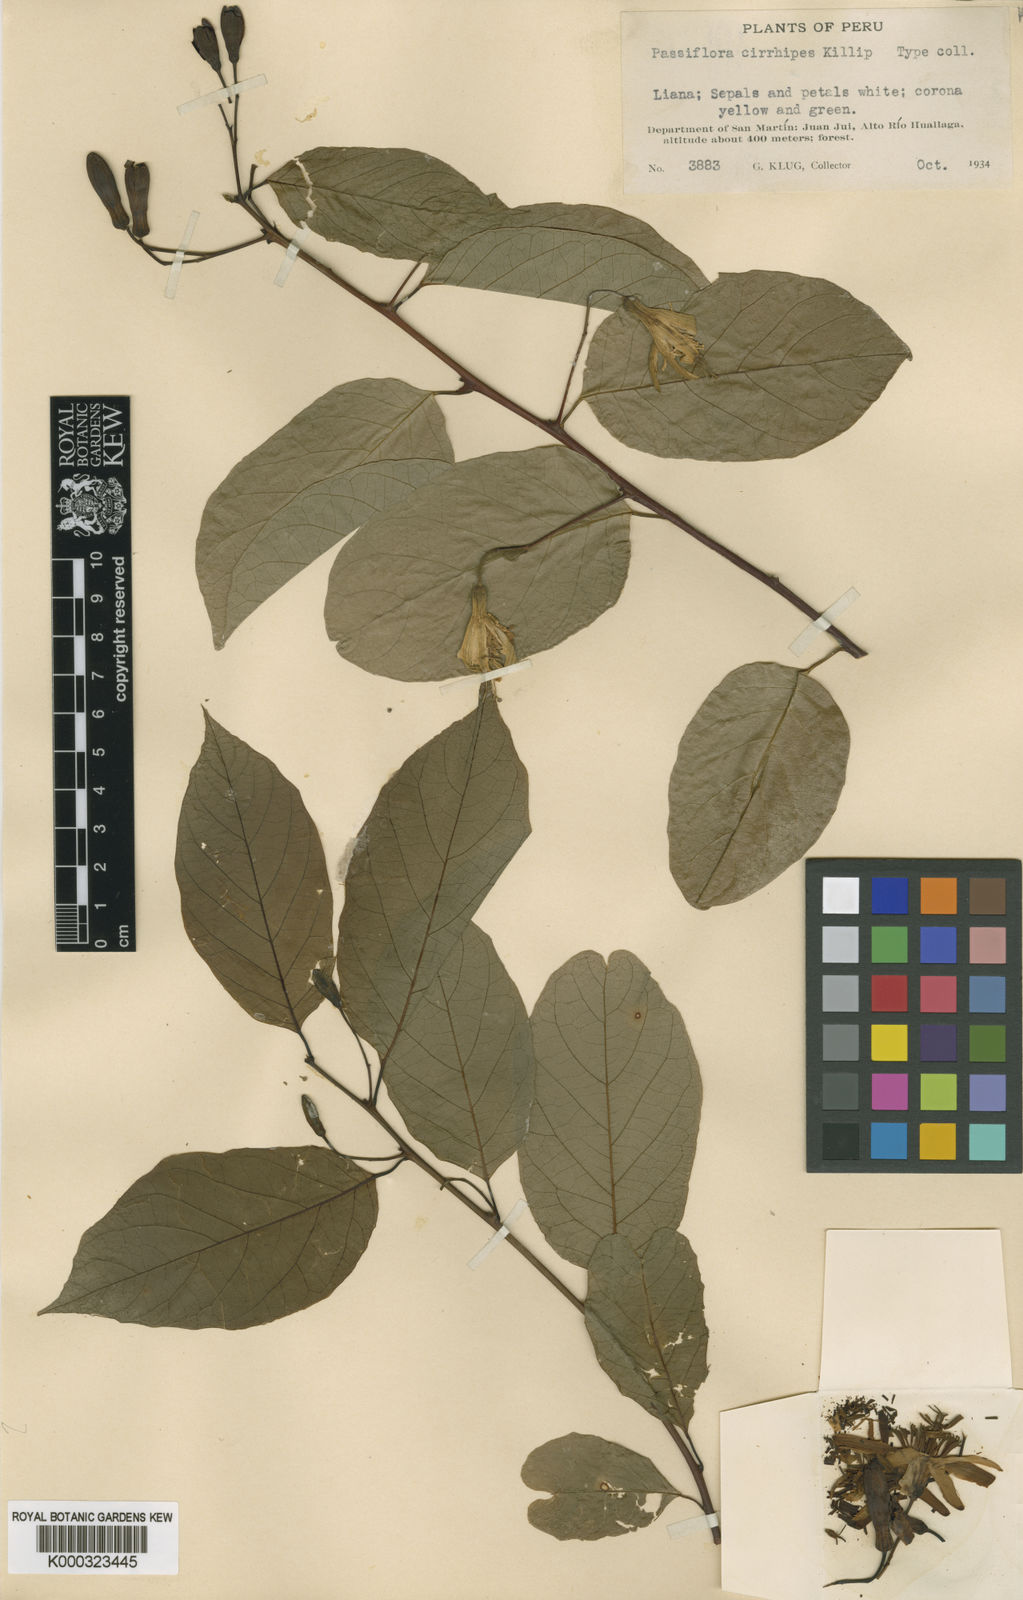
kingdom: Plantae
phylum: Tracheophyta
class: Magnoliopsida
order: Malpighiales
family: Passifloraceae
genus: Passiflora
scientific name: Passiflora cirrhipes
